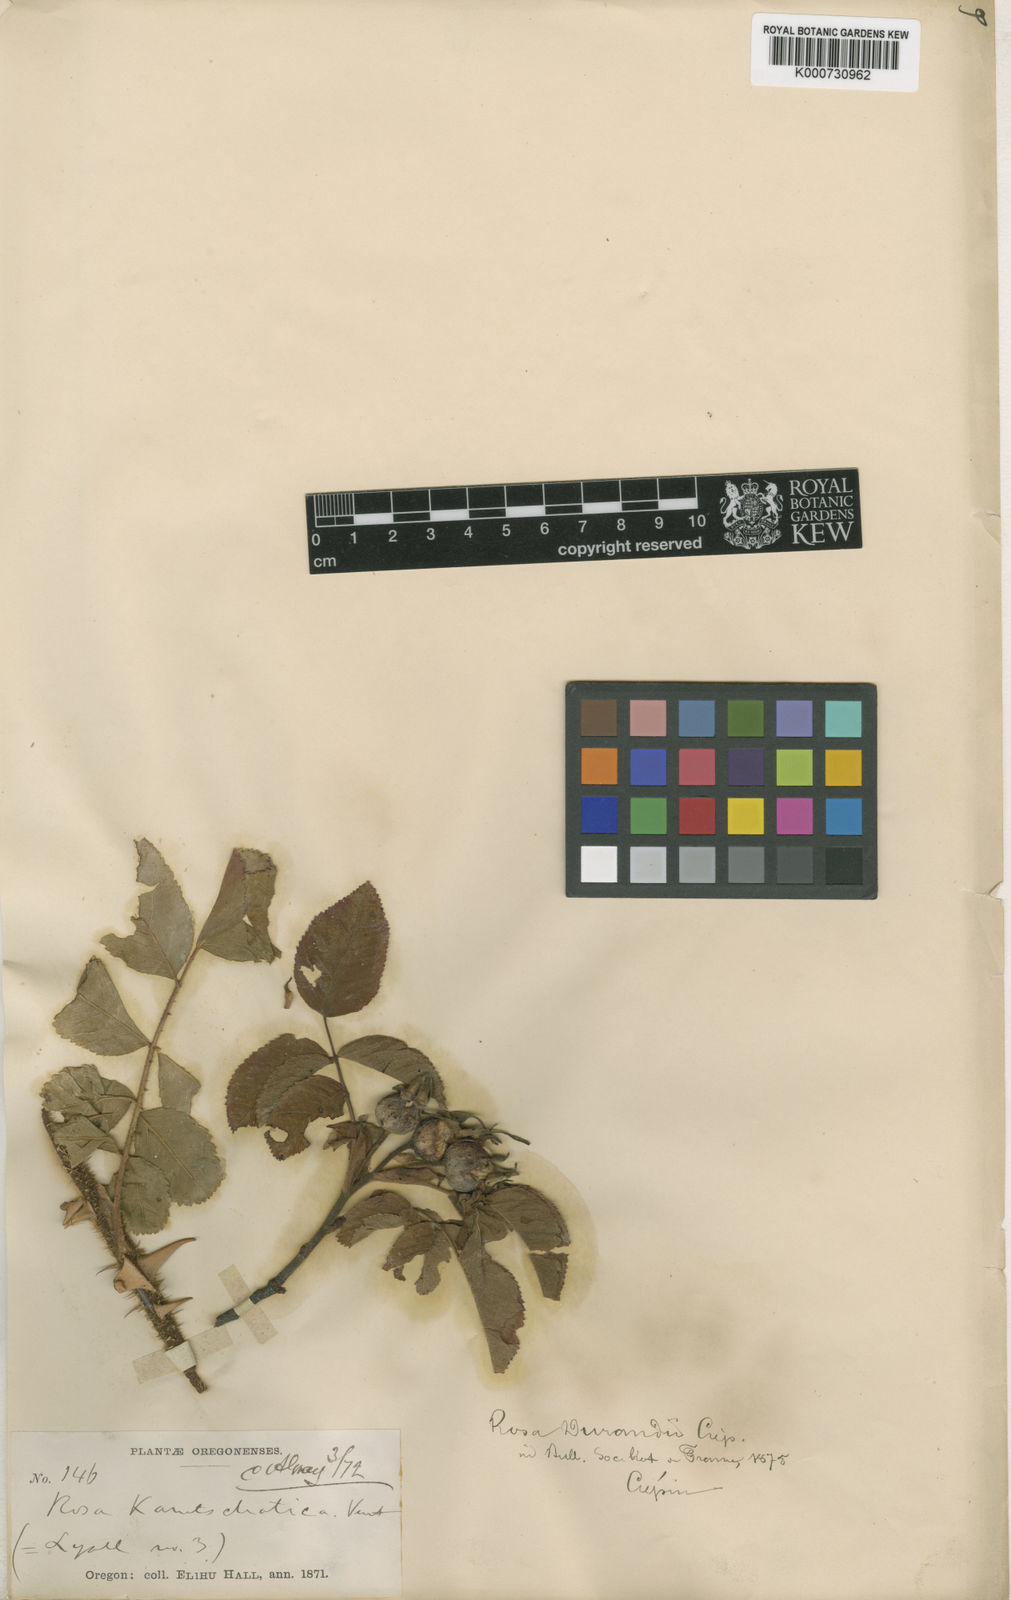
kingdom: Plantae
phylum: Tracheophyta
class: Magnoliopsida
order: Rosales
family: Rosaceae
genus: Rosa
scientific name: Rosa nutkana
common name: Nootka rose
